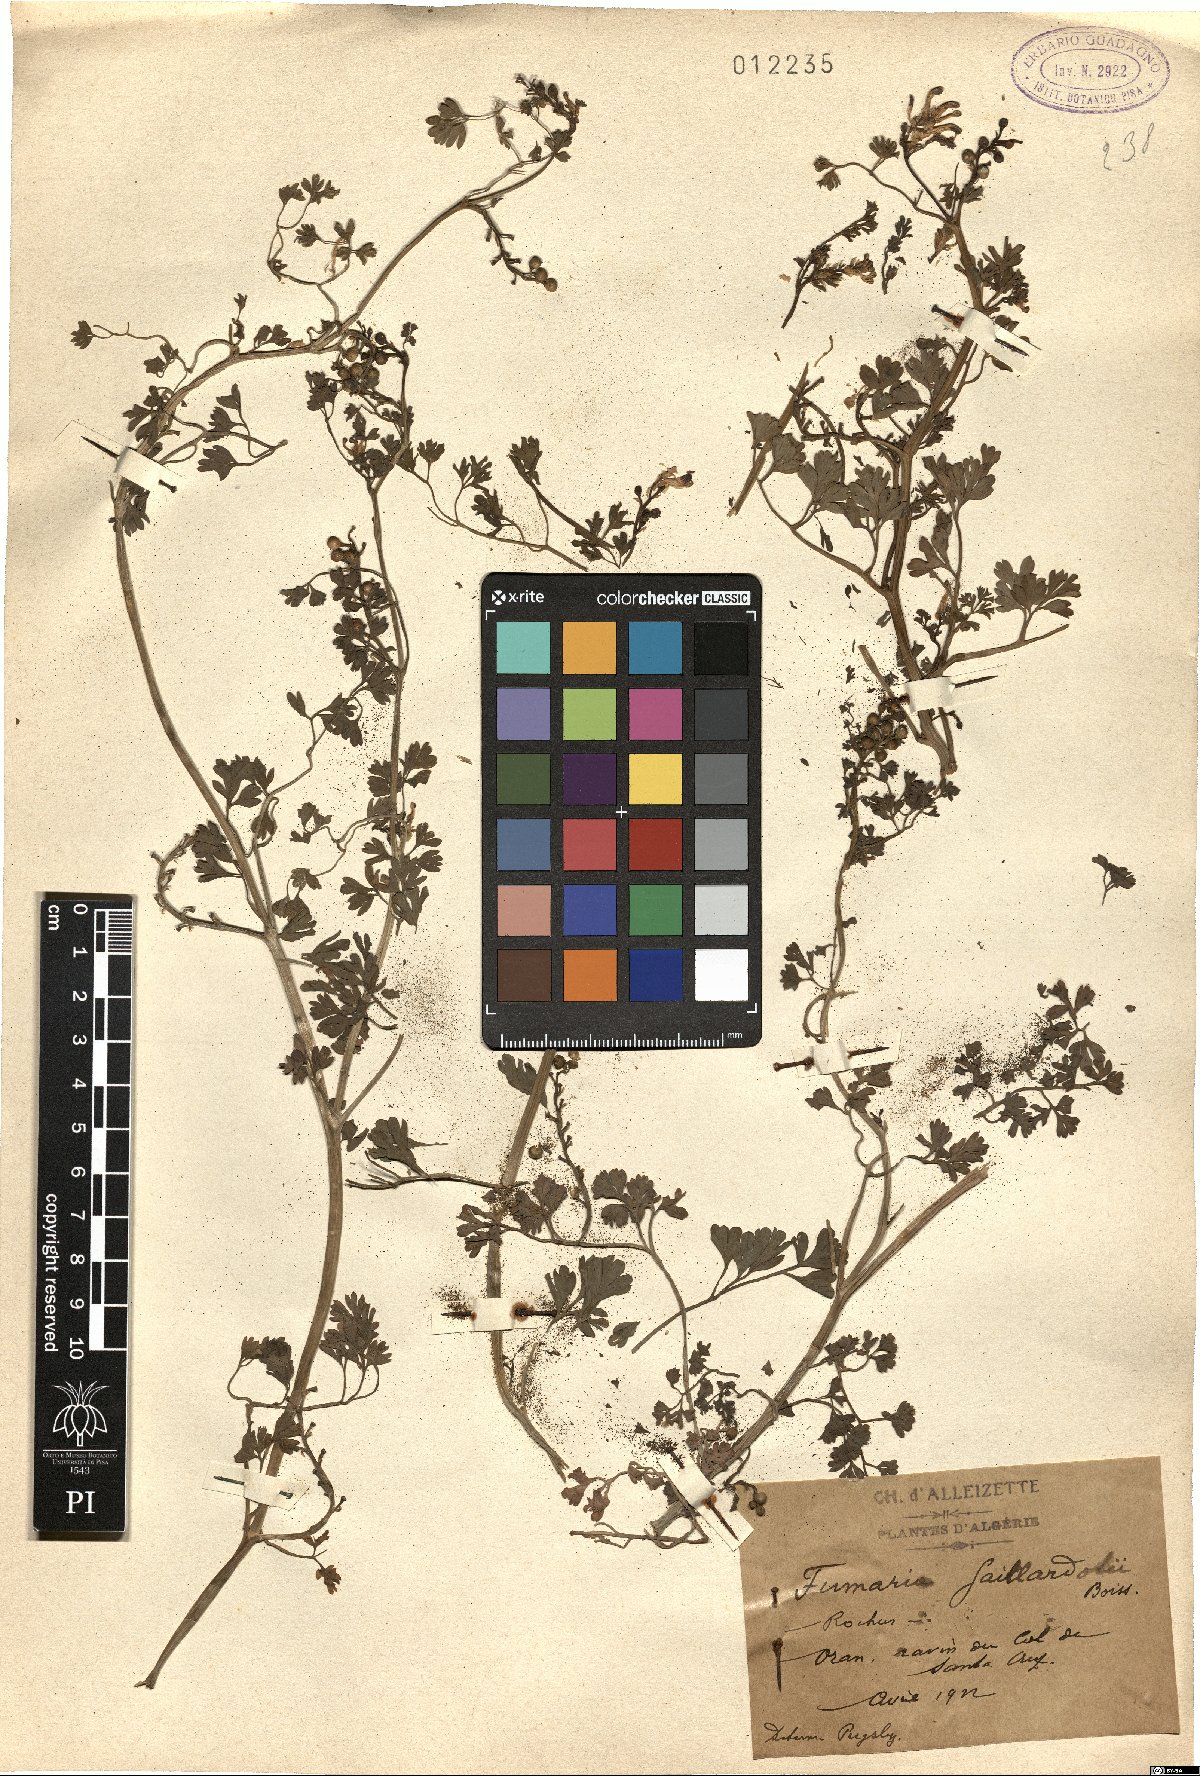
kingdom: Plantae
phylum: Tracheophyta
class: Magnoliopsida
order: Ranunculales
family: Papaveraceae
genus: Fumaria
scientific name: Fumaria gaillardotii
